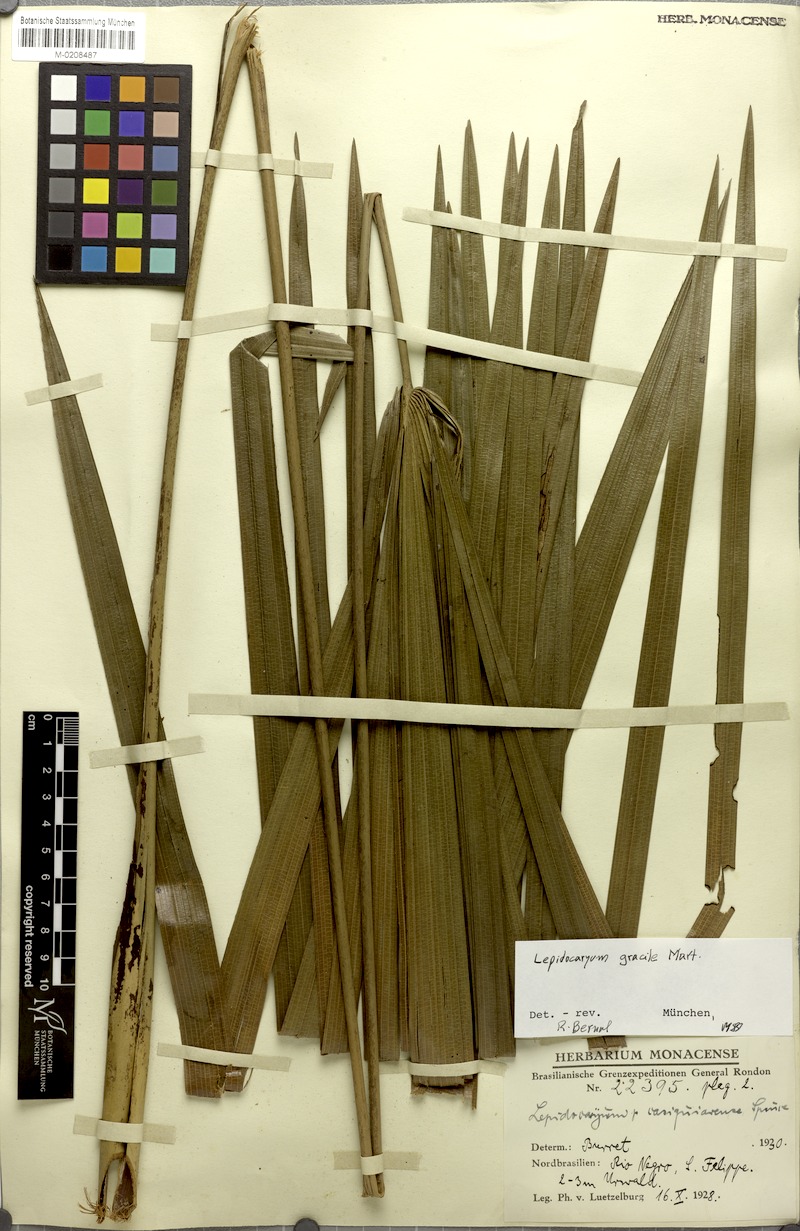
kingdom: Plantae
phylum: Tracheophyta
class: Liliopsida
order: Arecales
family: Arecaceae
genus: Lepidocaryum
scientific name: Lepidocaryum tenue
